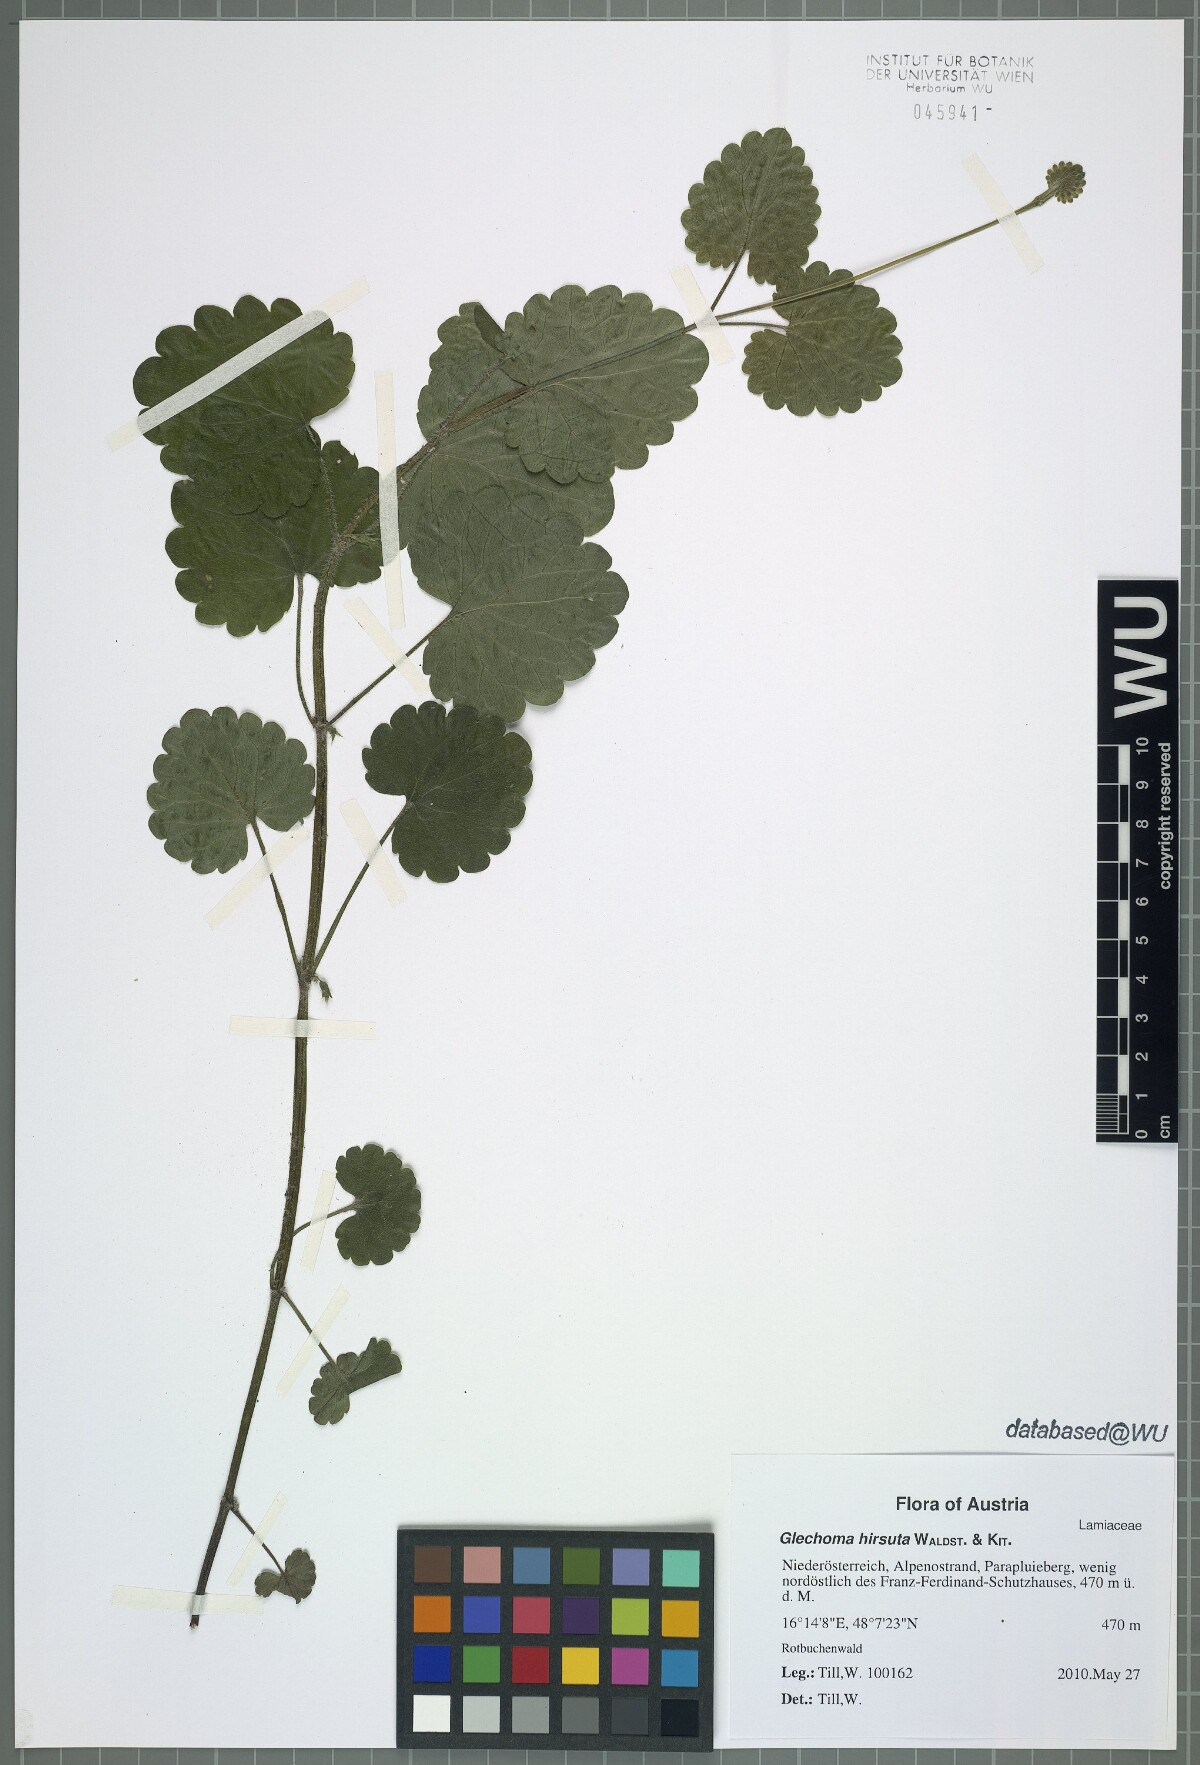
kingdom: Plantae
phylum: Tracheophyta
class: Magnoliopsida
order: Lamiales
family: Lamiaceae
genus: Glechoma
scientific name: Glechoma hirsuta
